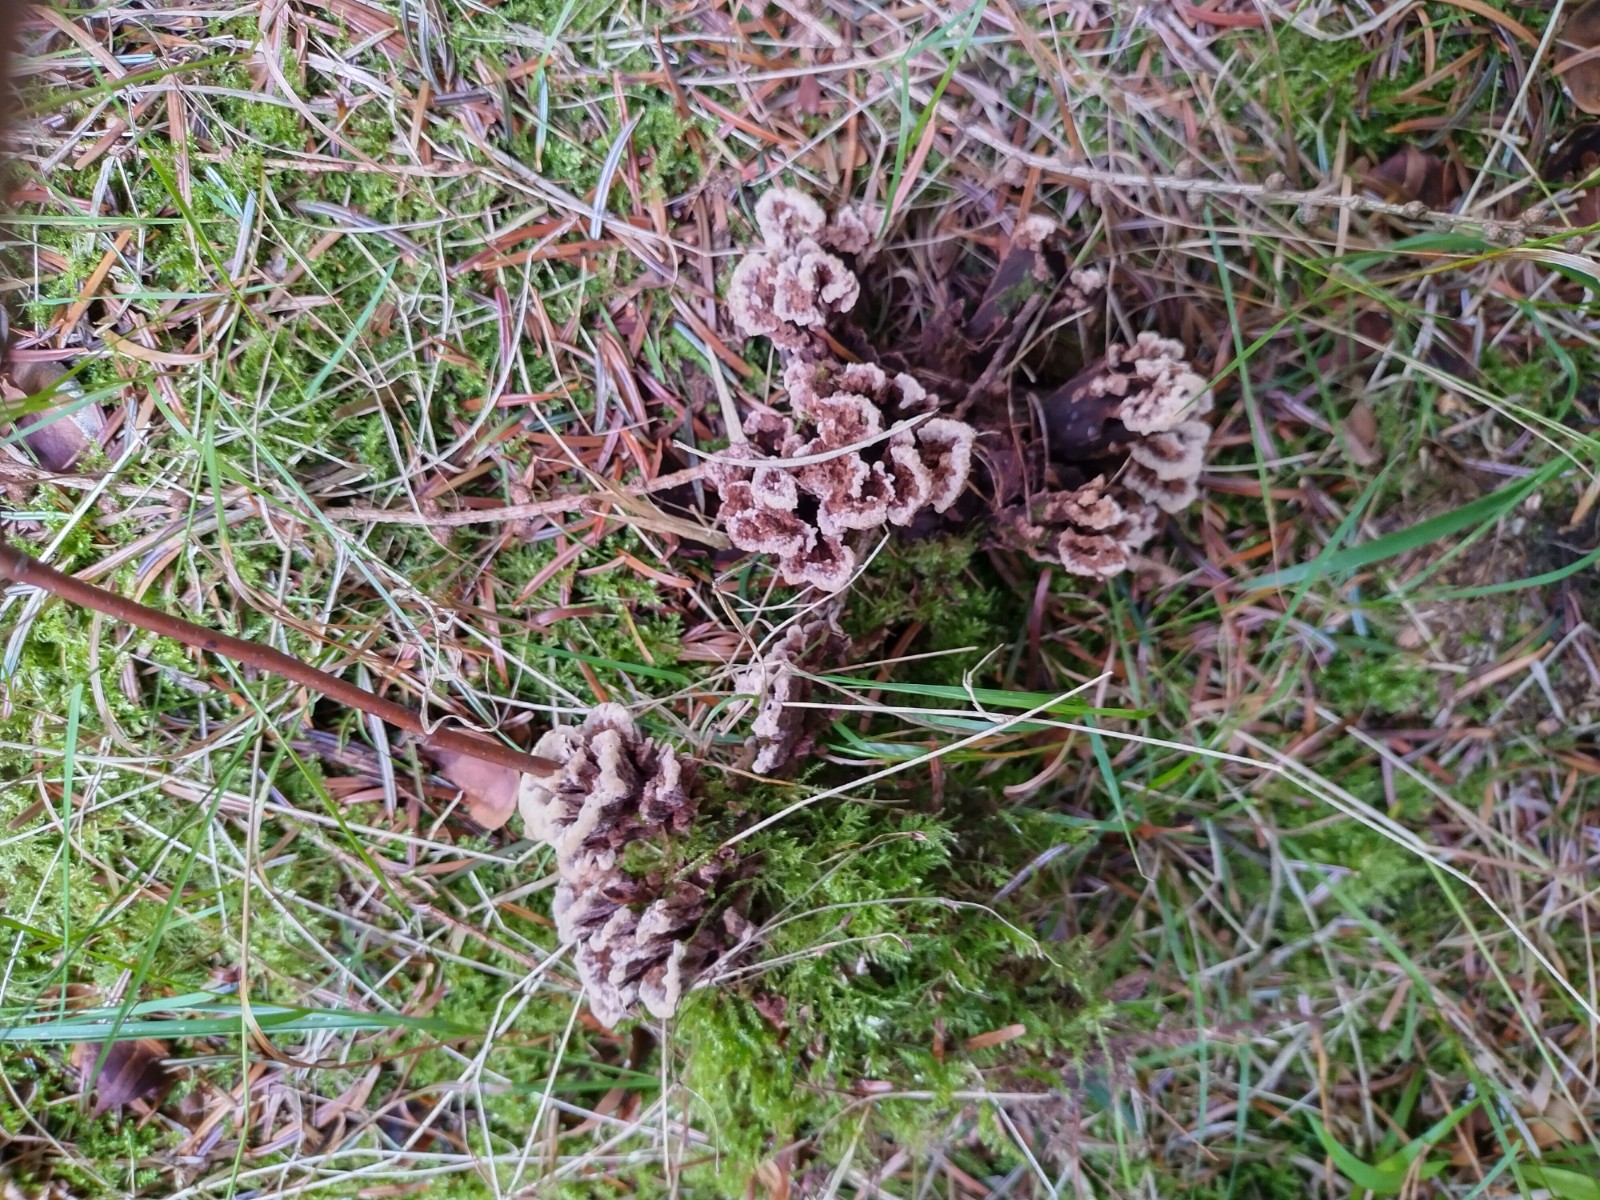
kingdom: Fungi
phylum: Basidiomycota
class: Agaricomycetes
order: Thelephorales
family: Thelephoraceae
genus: Thelephora
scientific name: Thelephora terrestris
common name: fliget frynsesvamp
